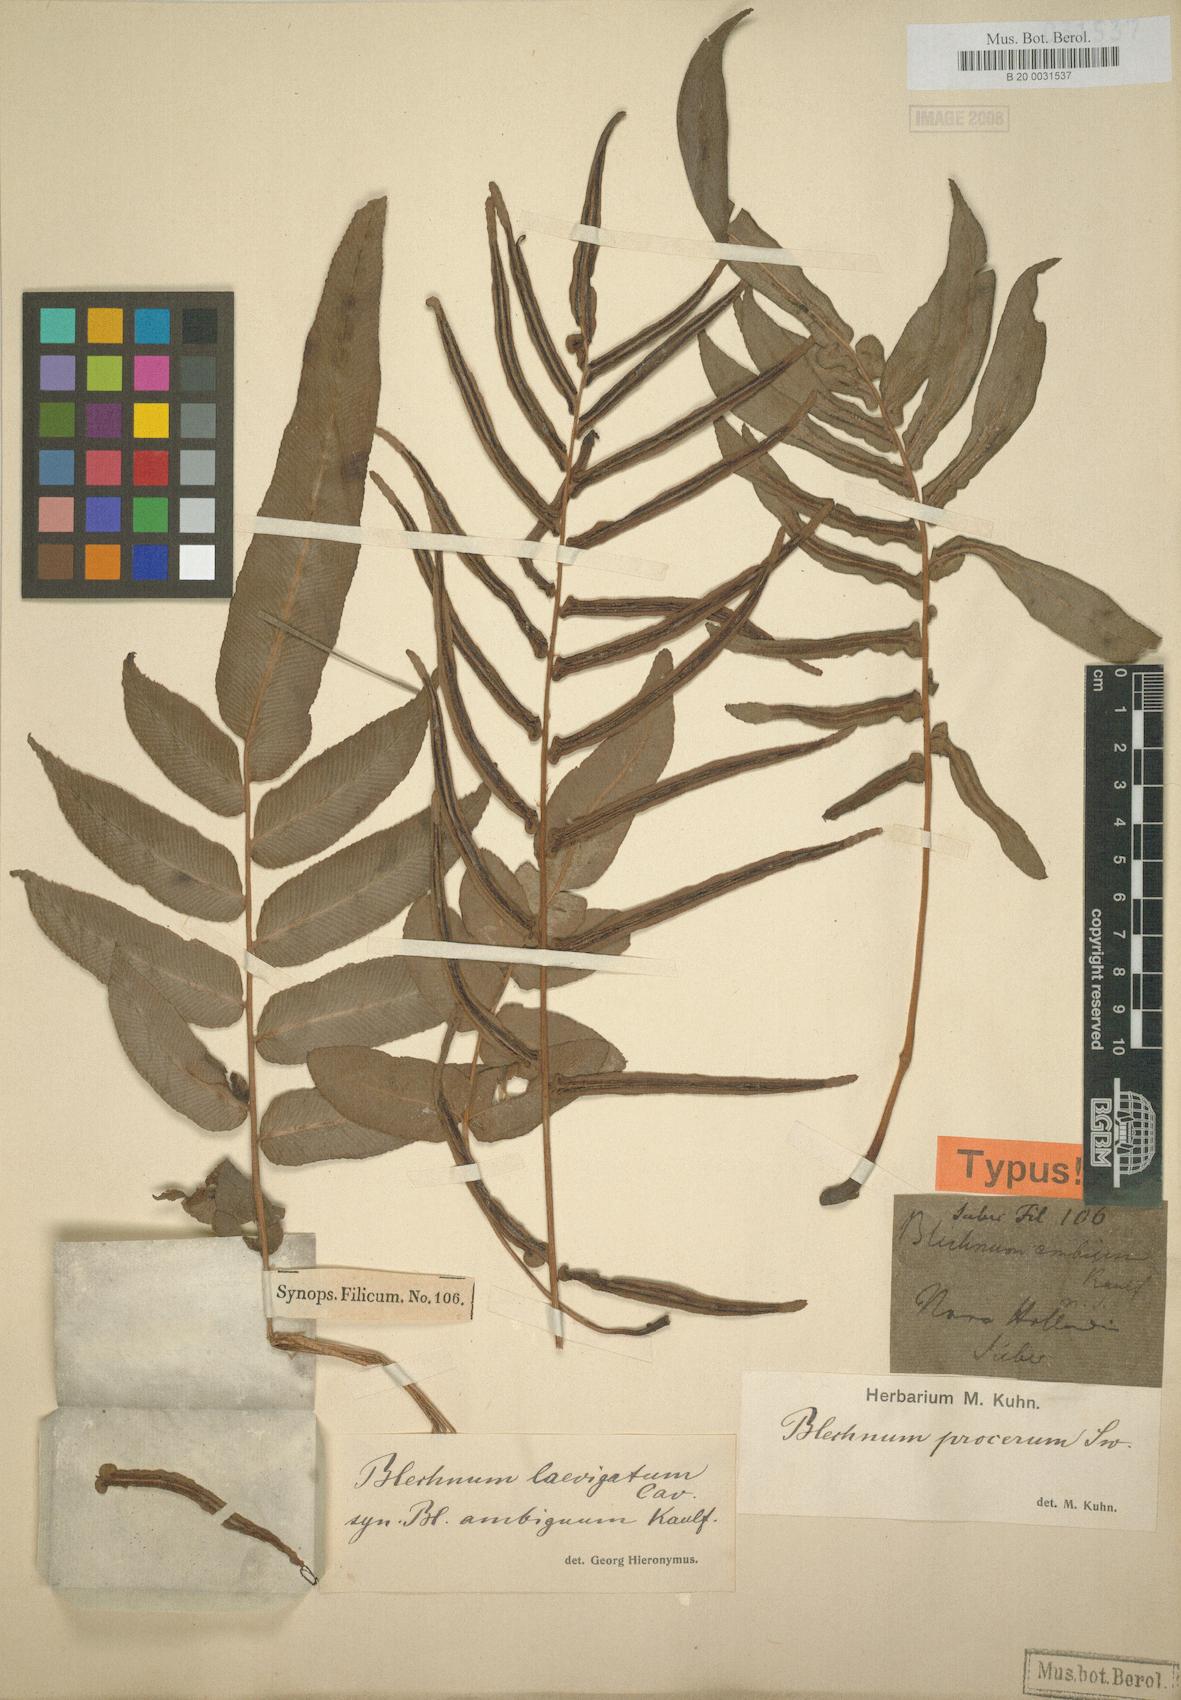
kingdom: Plantae
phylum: Tracheophyta
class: Polypodiopsida
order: Polypodiales
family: Blechnaceae
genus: Parablechnum
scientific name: Parablechnum ambiguum
